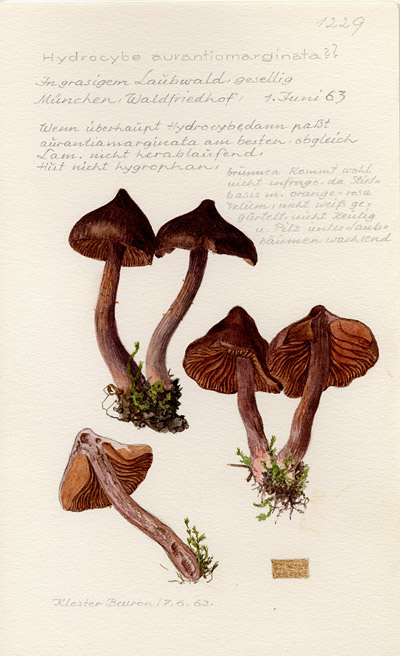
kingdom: Fungi
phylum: Basidiomycota
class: Agaricomycetes
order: Agaricales
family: Cortinariaceae
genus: Cortinarius
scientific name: Cortinarius aurantiomarginatus
